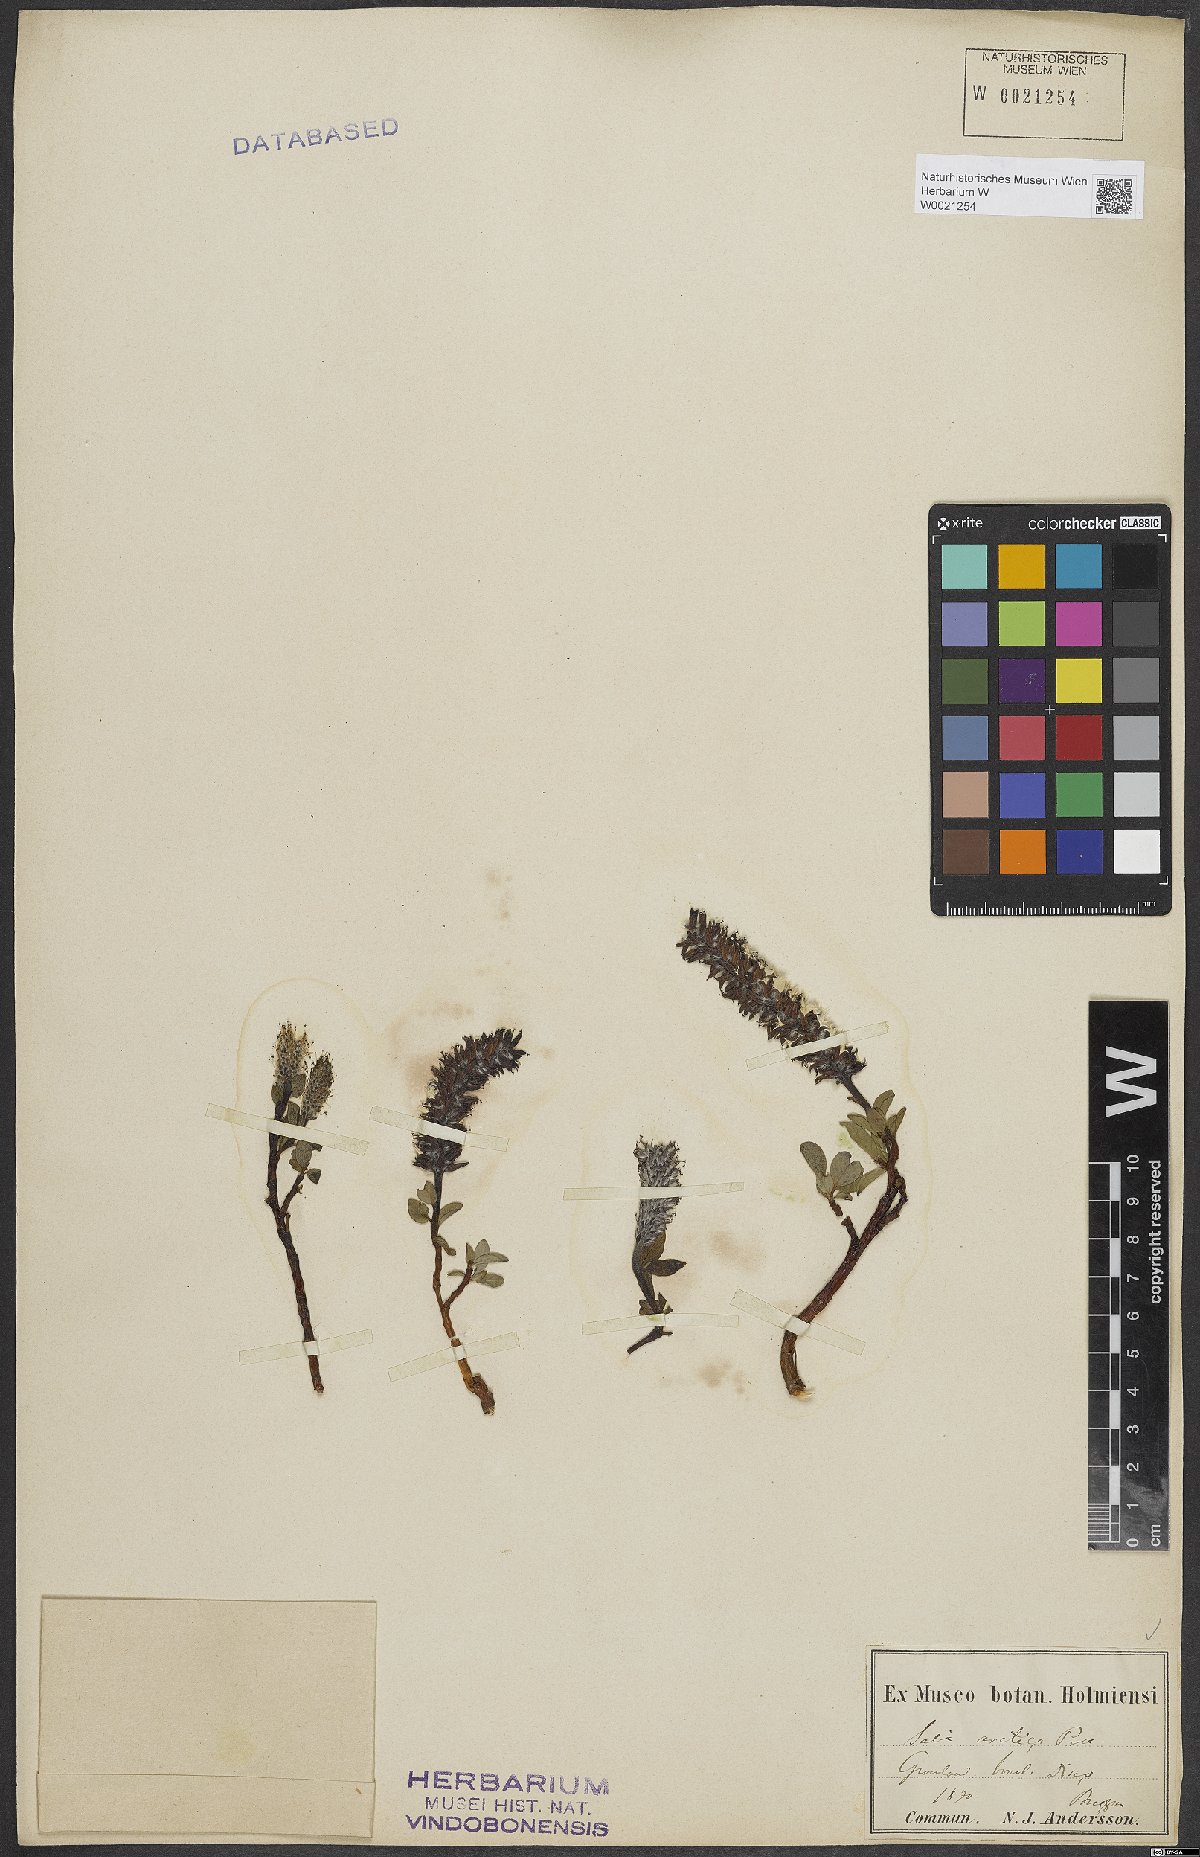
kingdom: Plantae
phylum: Tracheophyta
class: Magnoliopsida
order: Malpighiales
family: Salicaceae
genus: Salix
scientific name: Salix arctica
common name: Arctic willow
